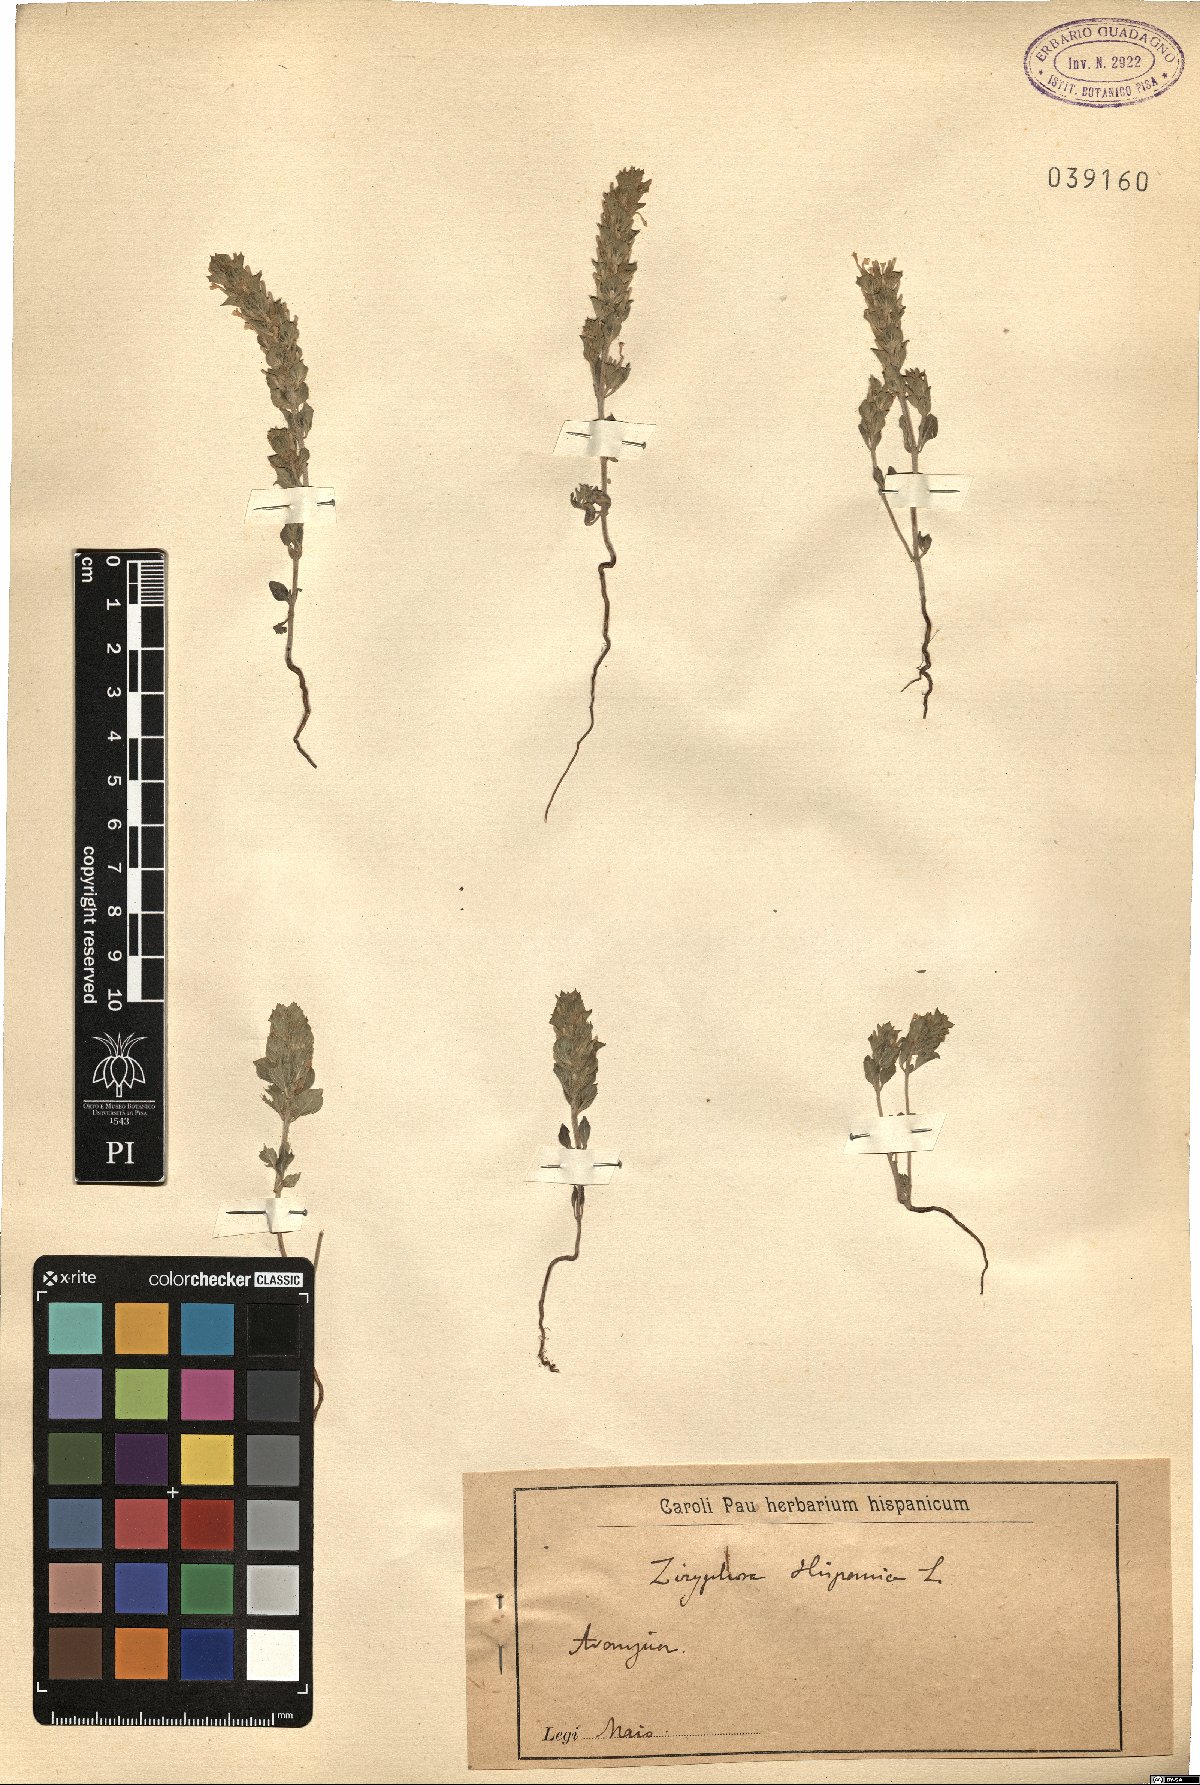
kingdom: Plantae
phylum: Tracheophyta
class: Magnoliopsida
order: Lamiales
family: Lamiaceae
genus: Ziziphora
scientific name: Ziziphora hispanica
